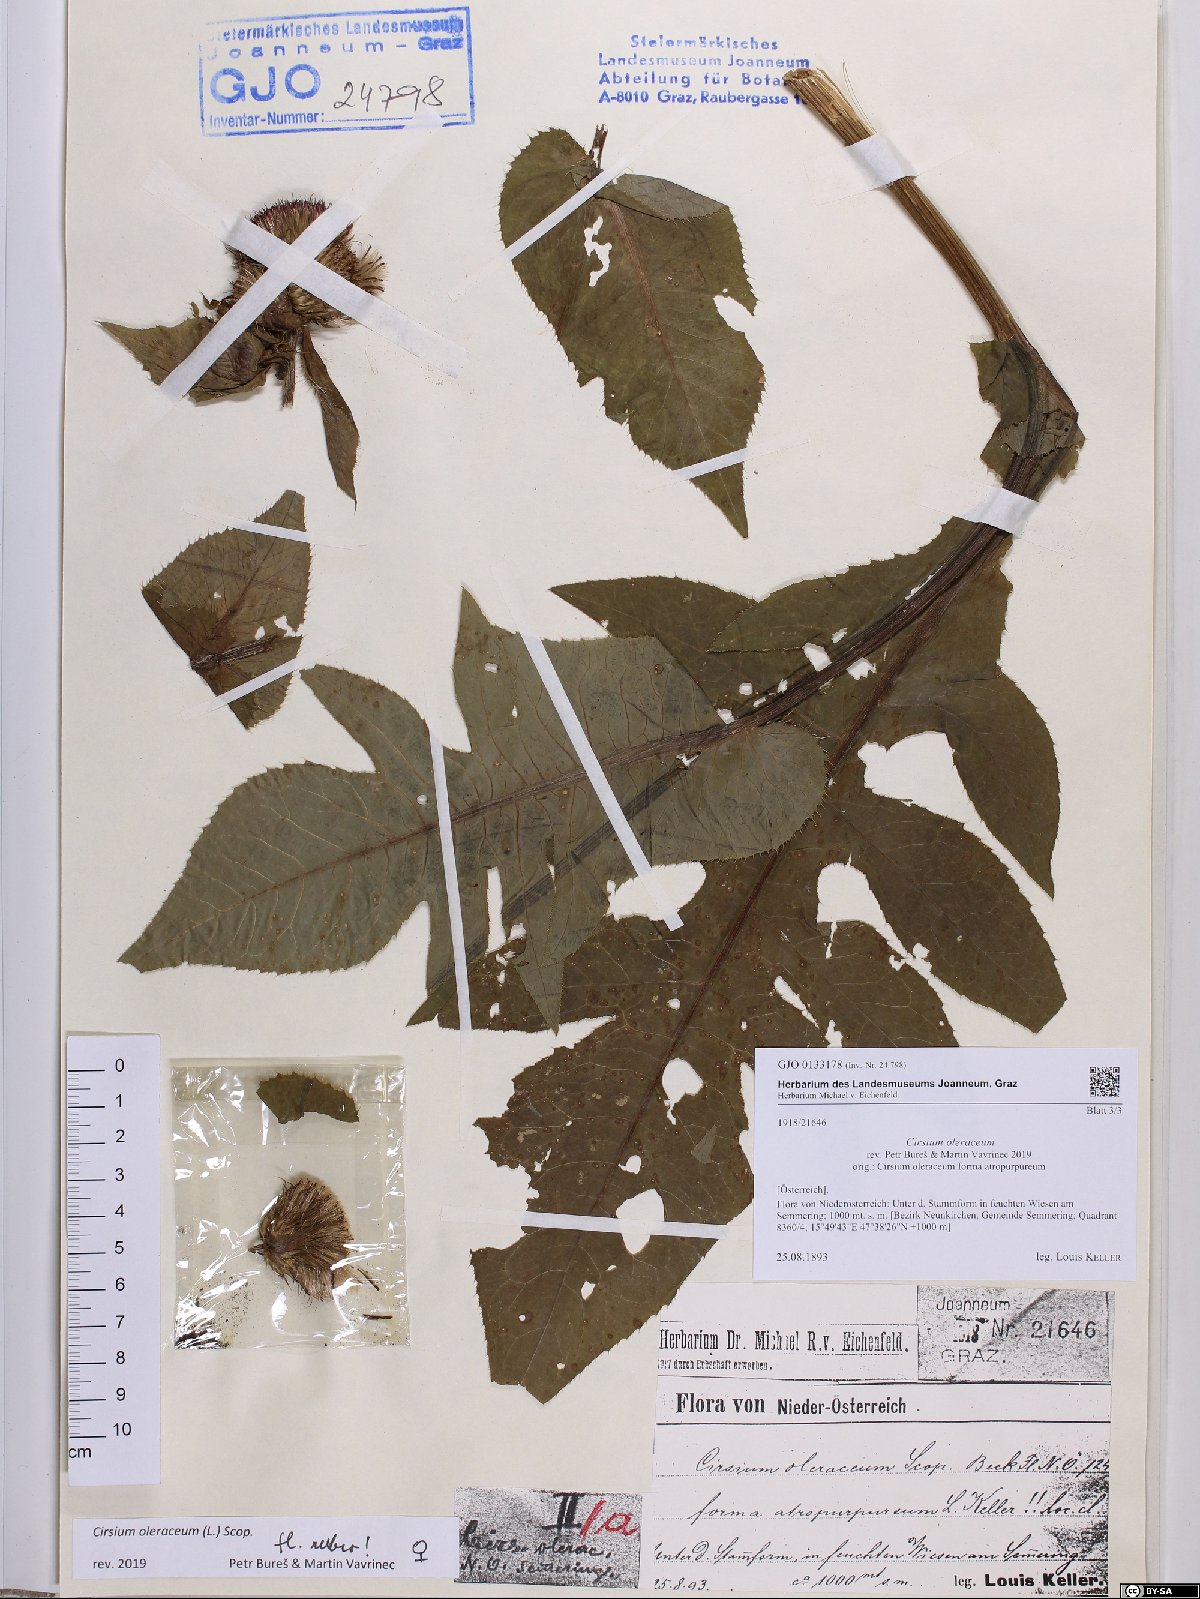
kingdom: Plantae
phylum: Tracheophyta
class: Magnoliopsida
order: Asterales
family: Asteraceae
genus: Cirsium
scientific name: Cirsium oleraceum
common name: Cabbage thistle
